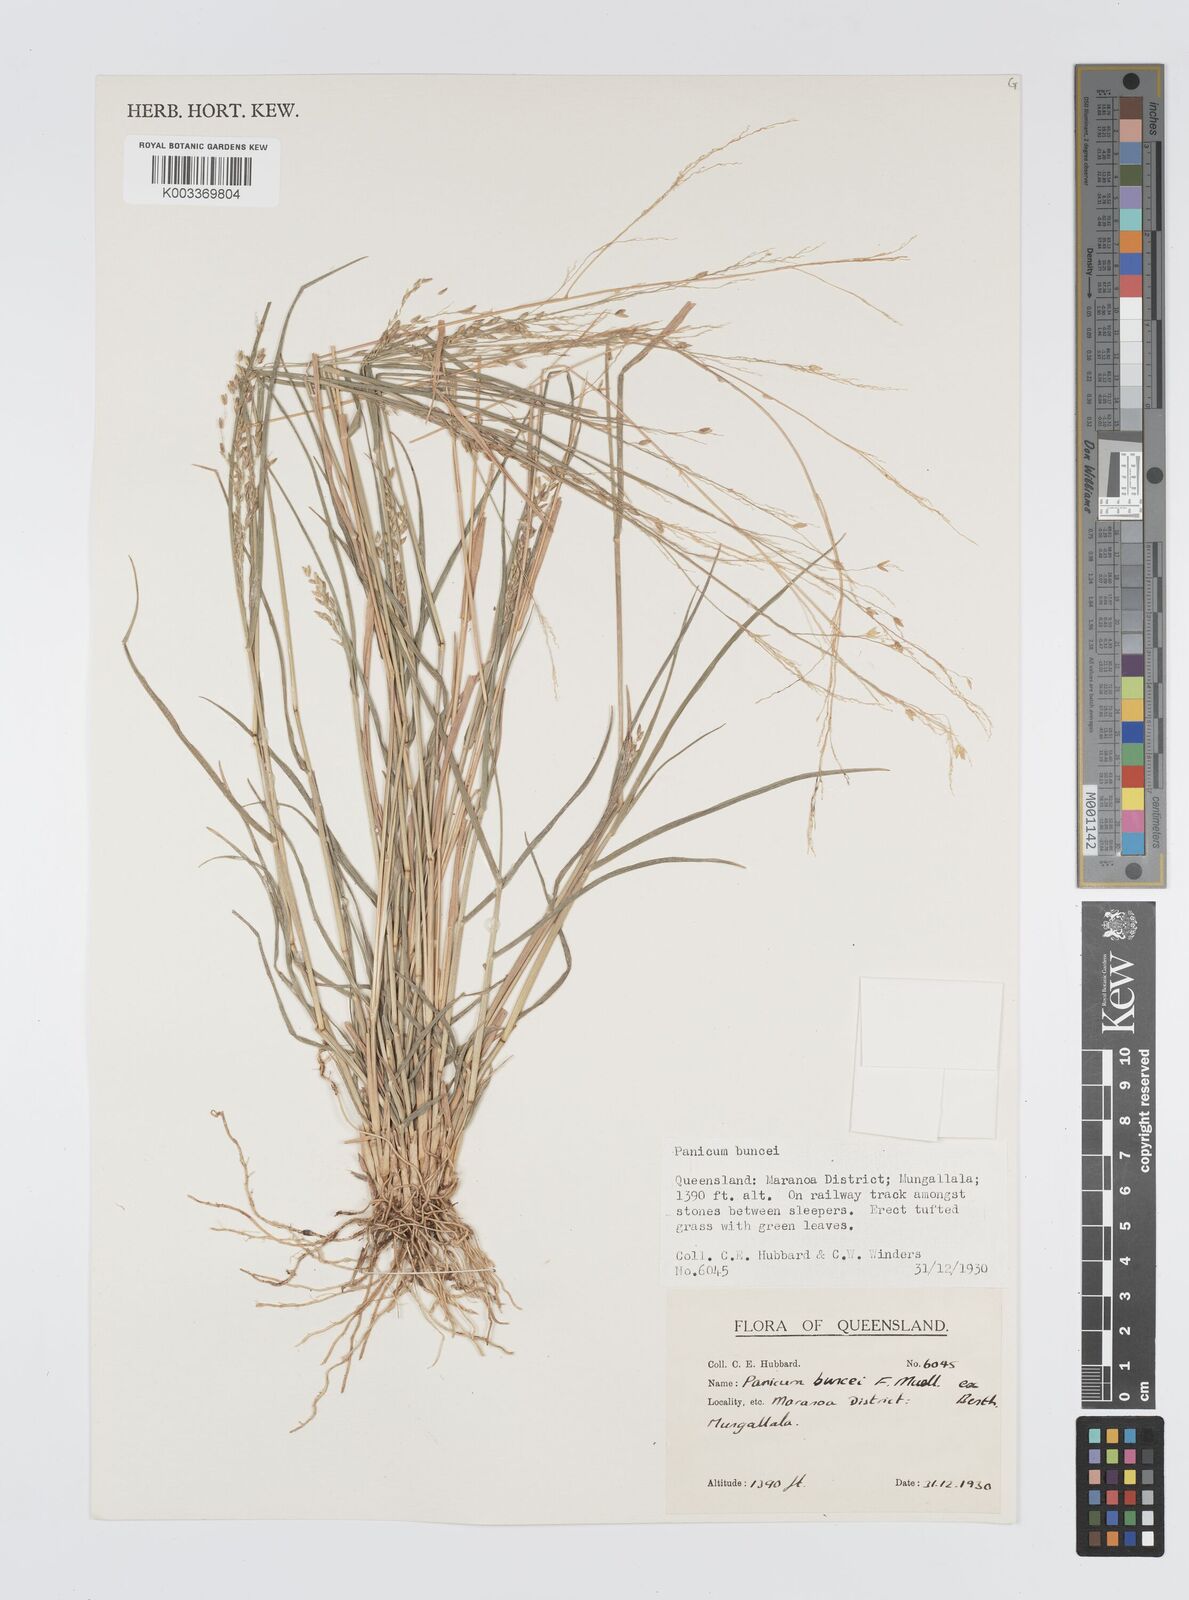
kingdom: Plantae
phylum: Tracheophyta
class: Liliopsida
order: Poales
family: Poaceae
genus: Panicum
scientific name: Panicum buncei
